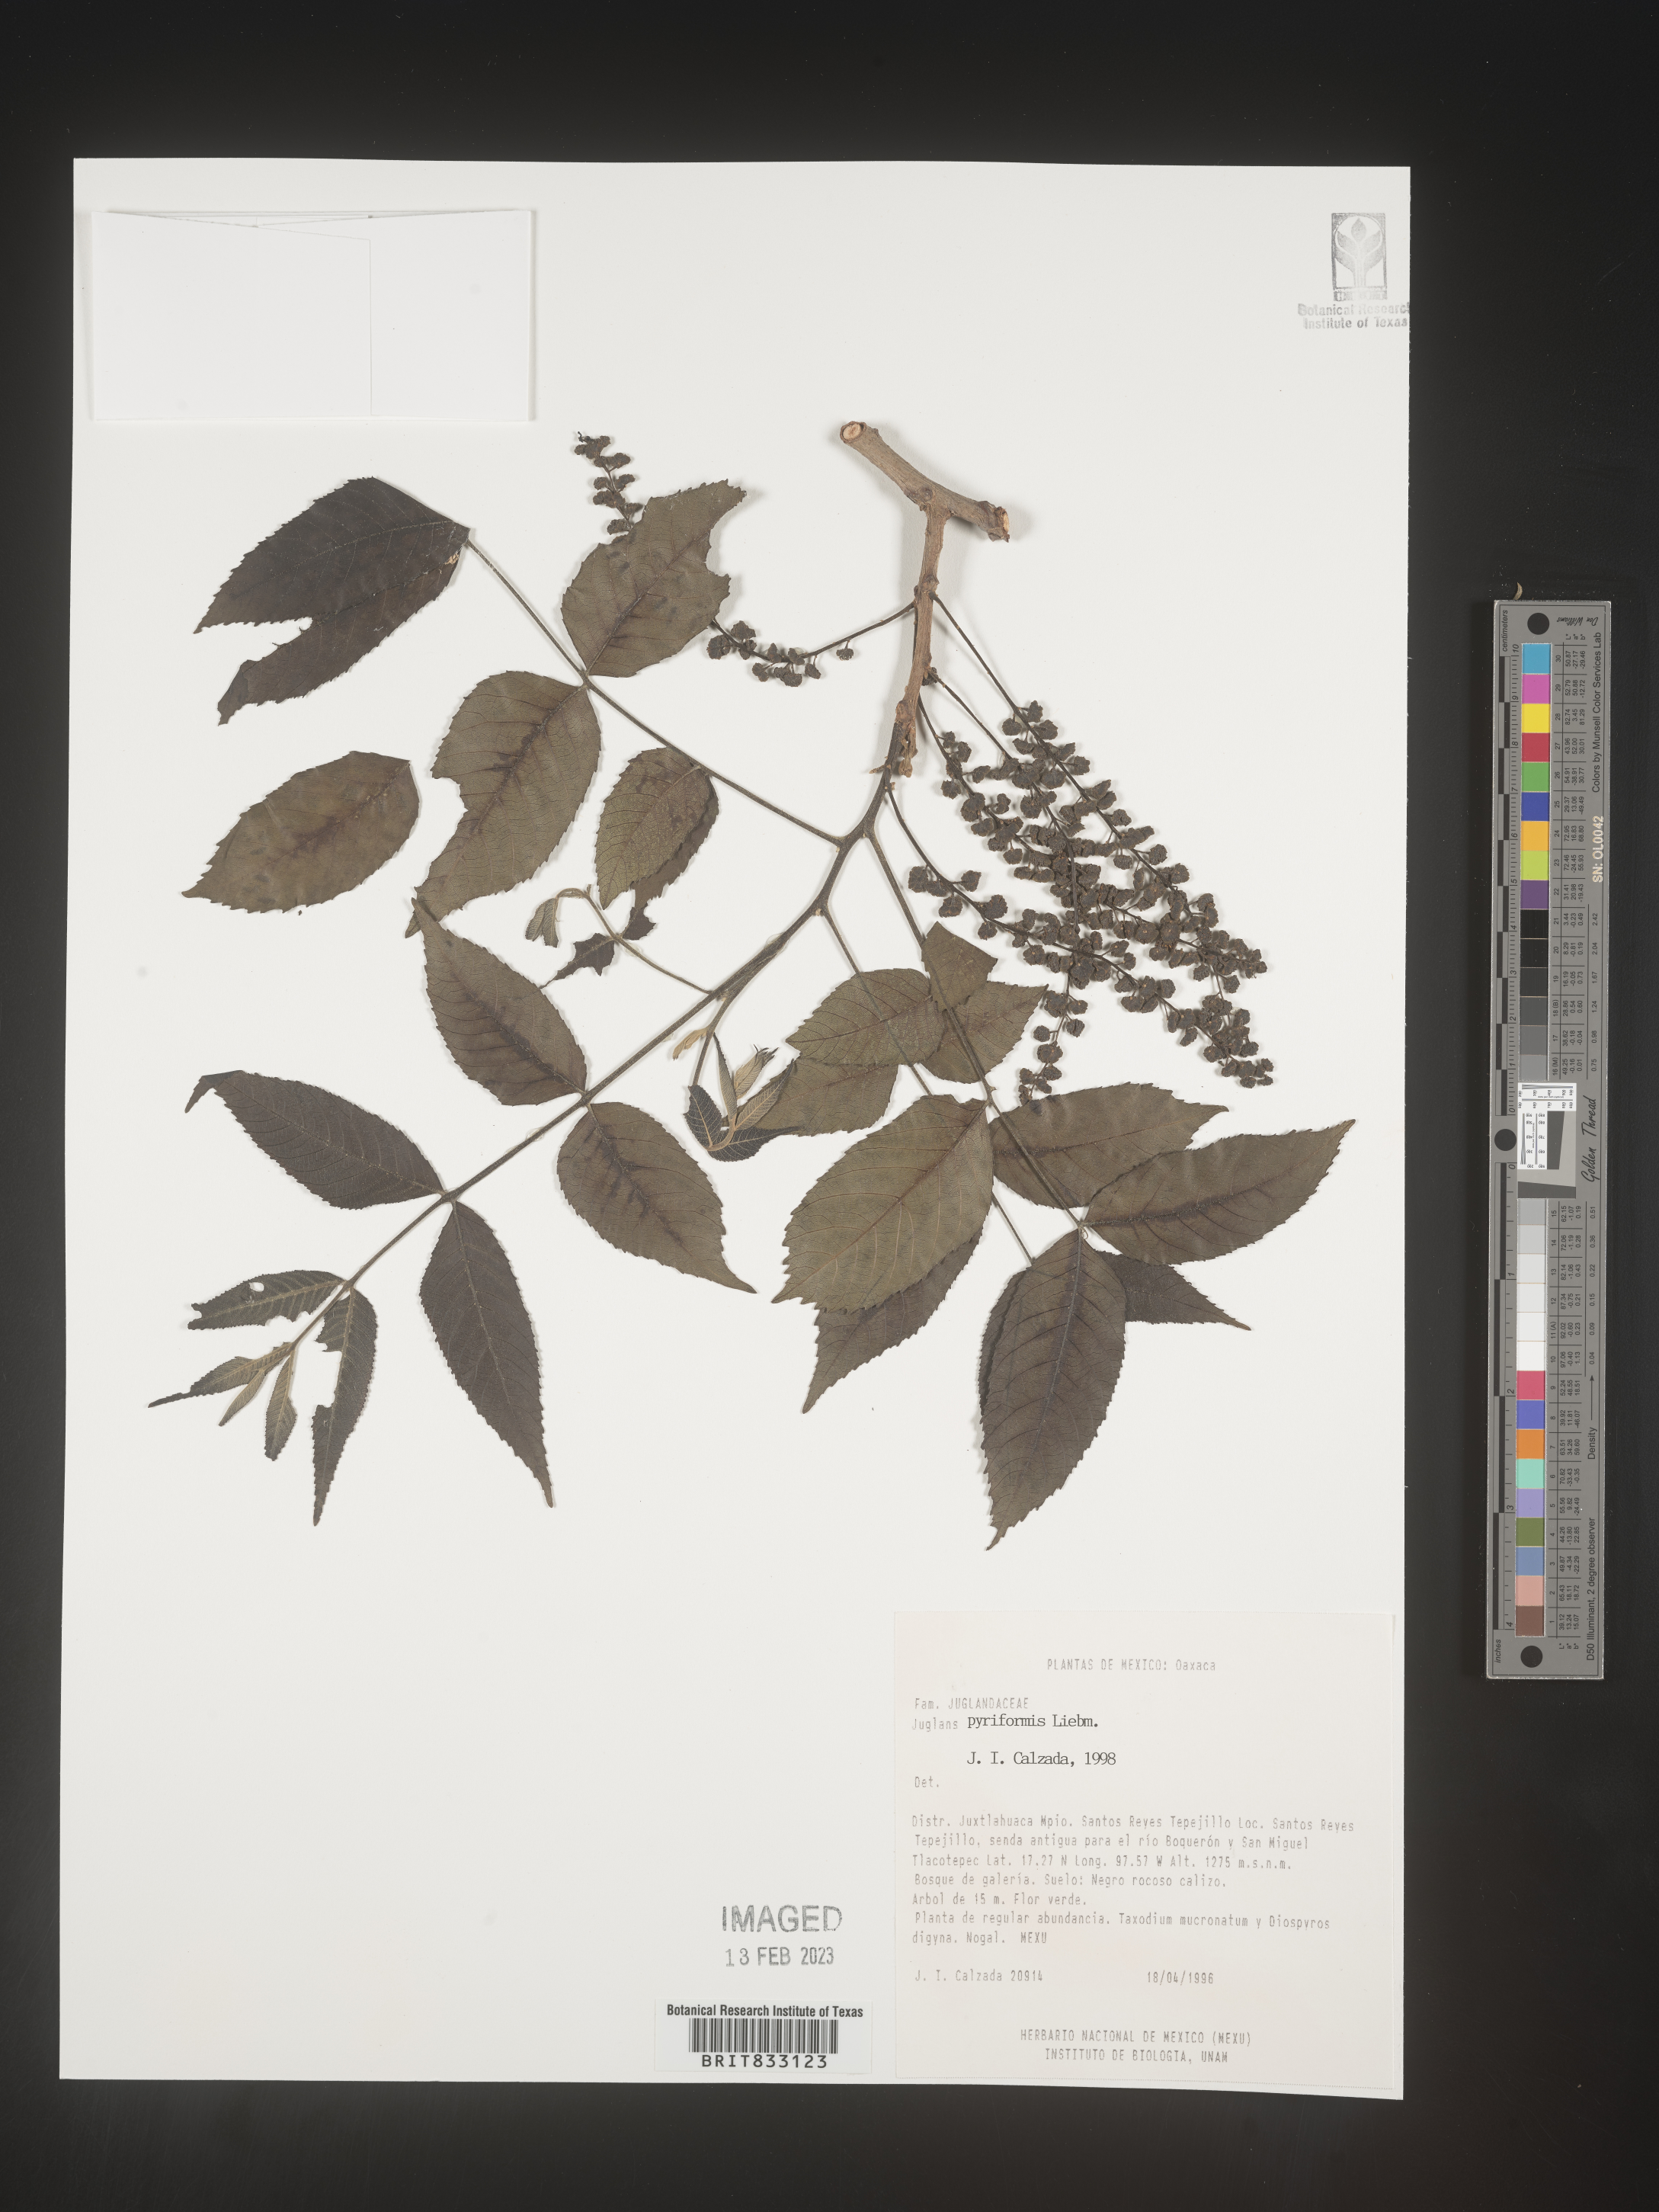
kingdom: Plantae
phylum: Tracheophyta
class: Magnoliopsida
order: Fagales
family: Juglandaceae
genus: Carya
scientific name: Carya glabra
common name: Pignut hickory
